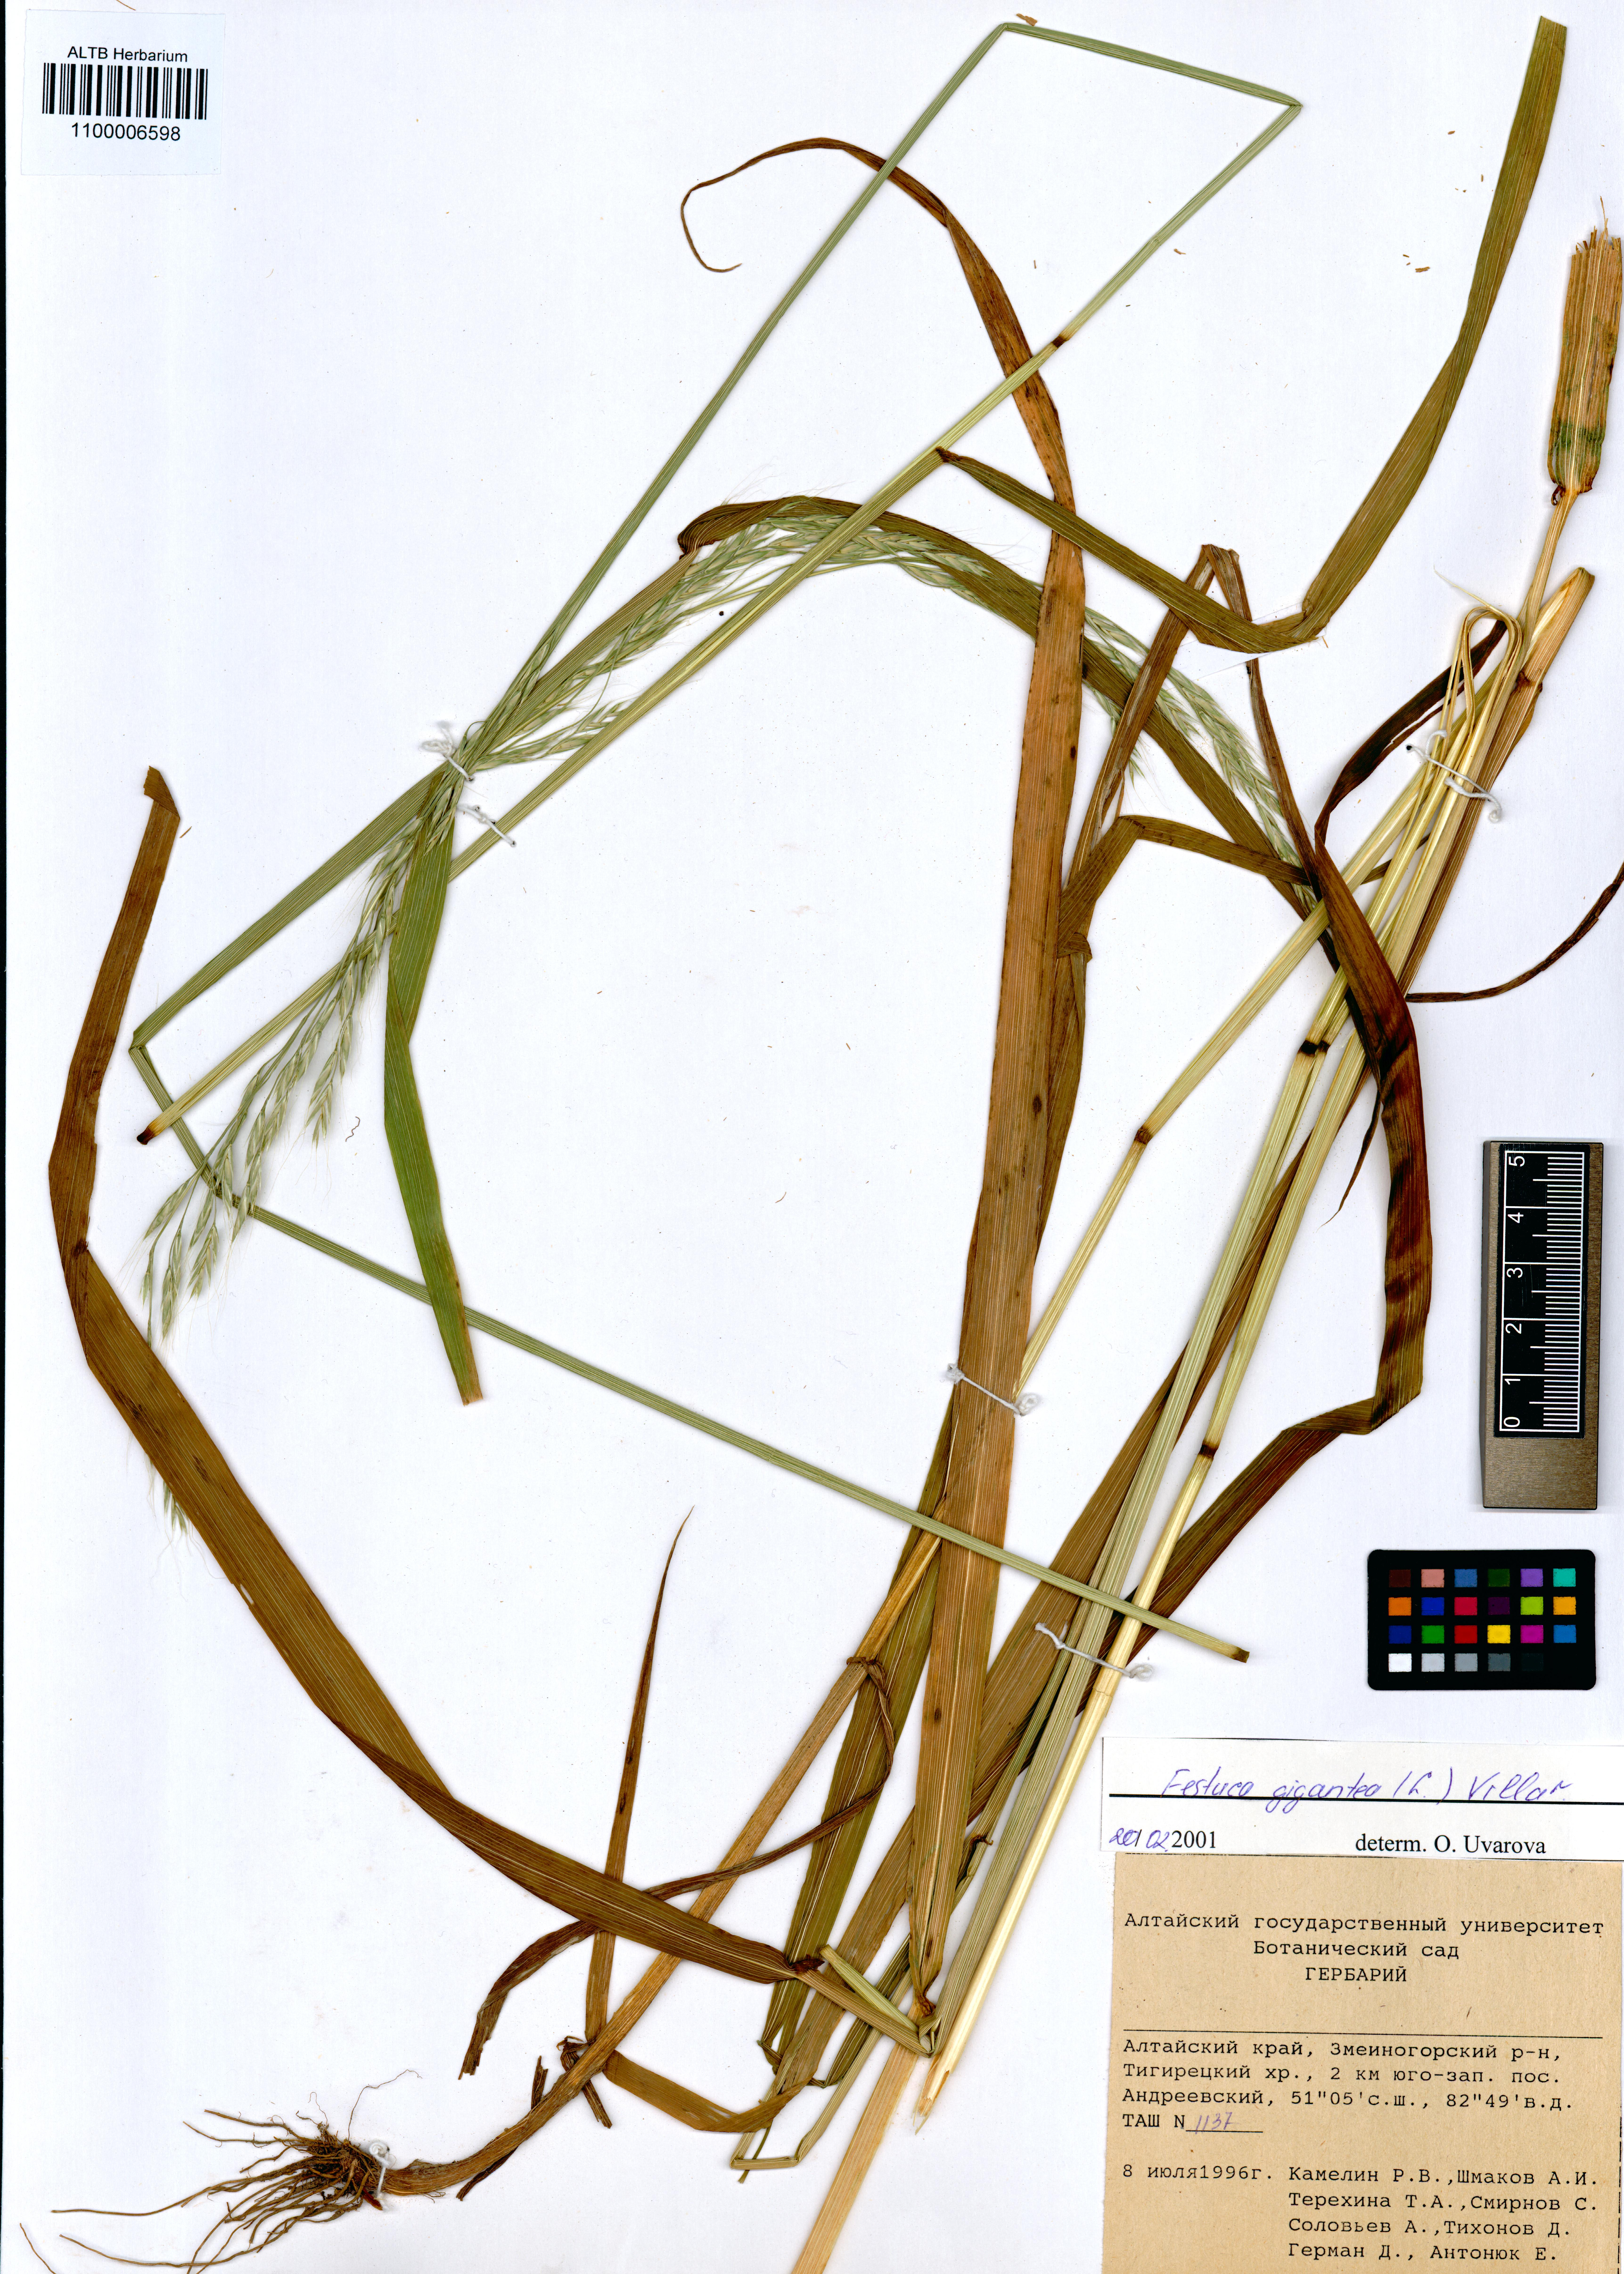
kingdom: Plantae
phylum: Tracheophyta
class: Liliopsida
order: Poales
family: Poaceae
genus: Lolium
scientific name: Lolium giganteum
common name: Giant fescue
